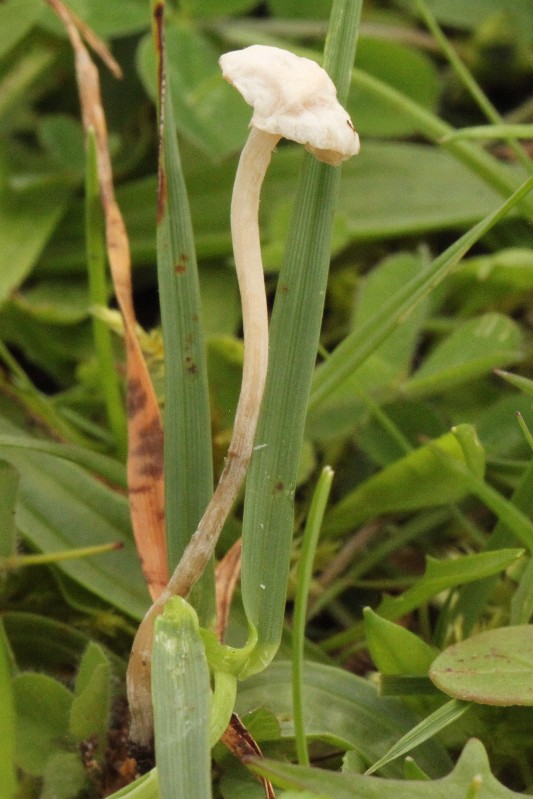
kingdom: Fungi
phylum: Basidiomycota
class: Agaricomycetes
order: Agaricales
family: Omphalotaceae
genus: Marasmiellus
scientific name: Marasmiellus tricolor
